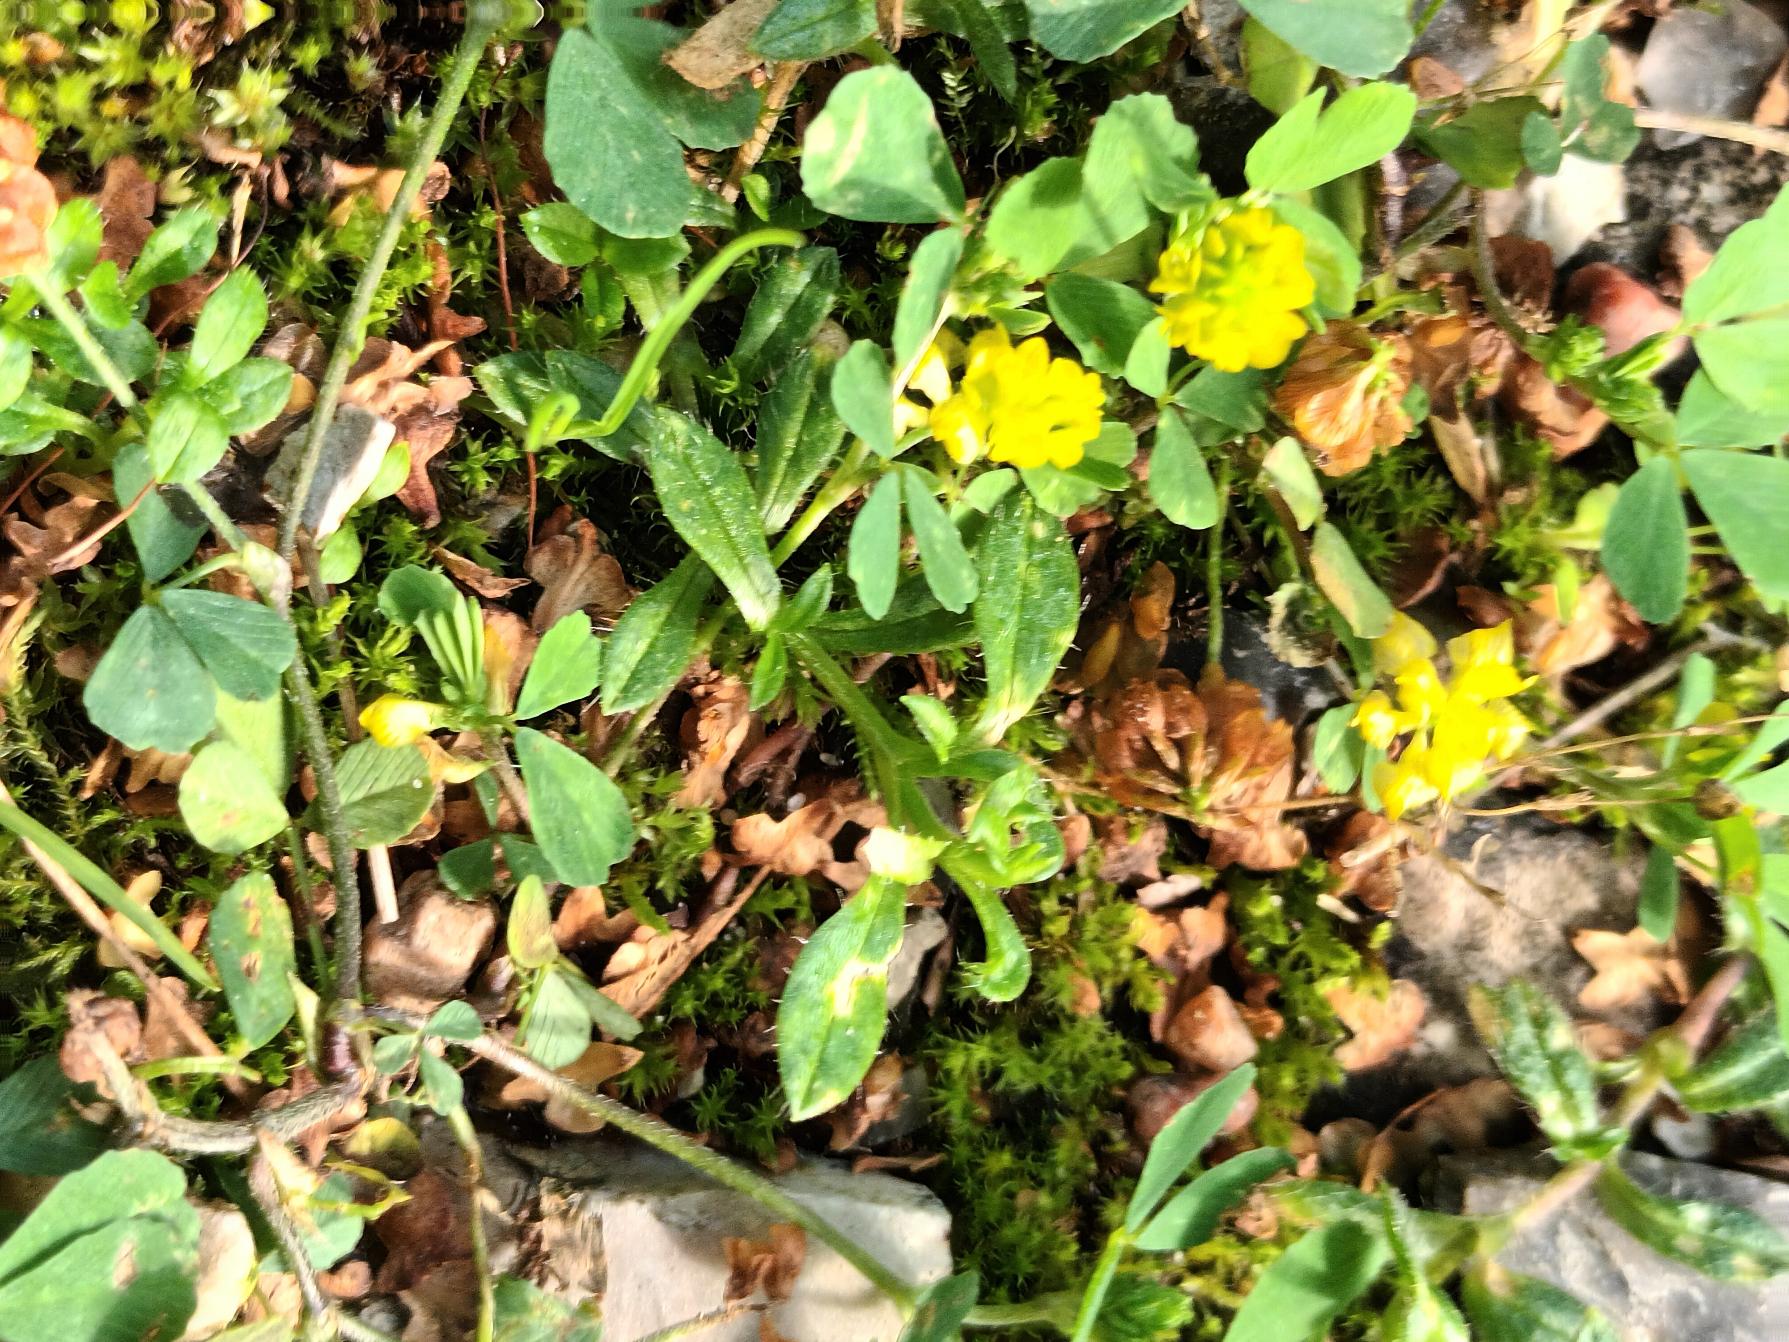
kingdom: Plantae
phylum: Tracheophyta
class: Magnoliopsida
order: Fabales
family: Fabaceae
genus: Trifolium
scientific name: Trifolium campestre
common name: Gul kløver
